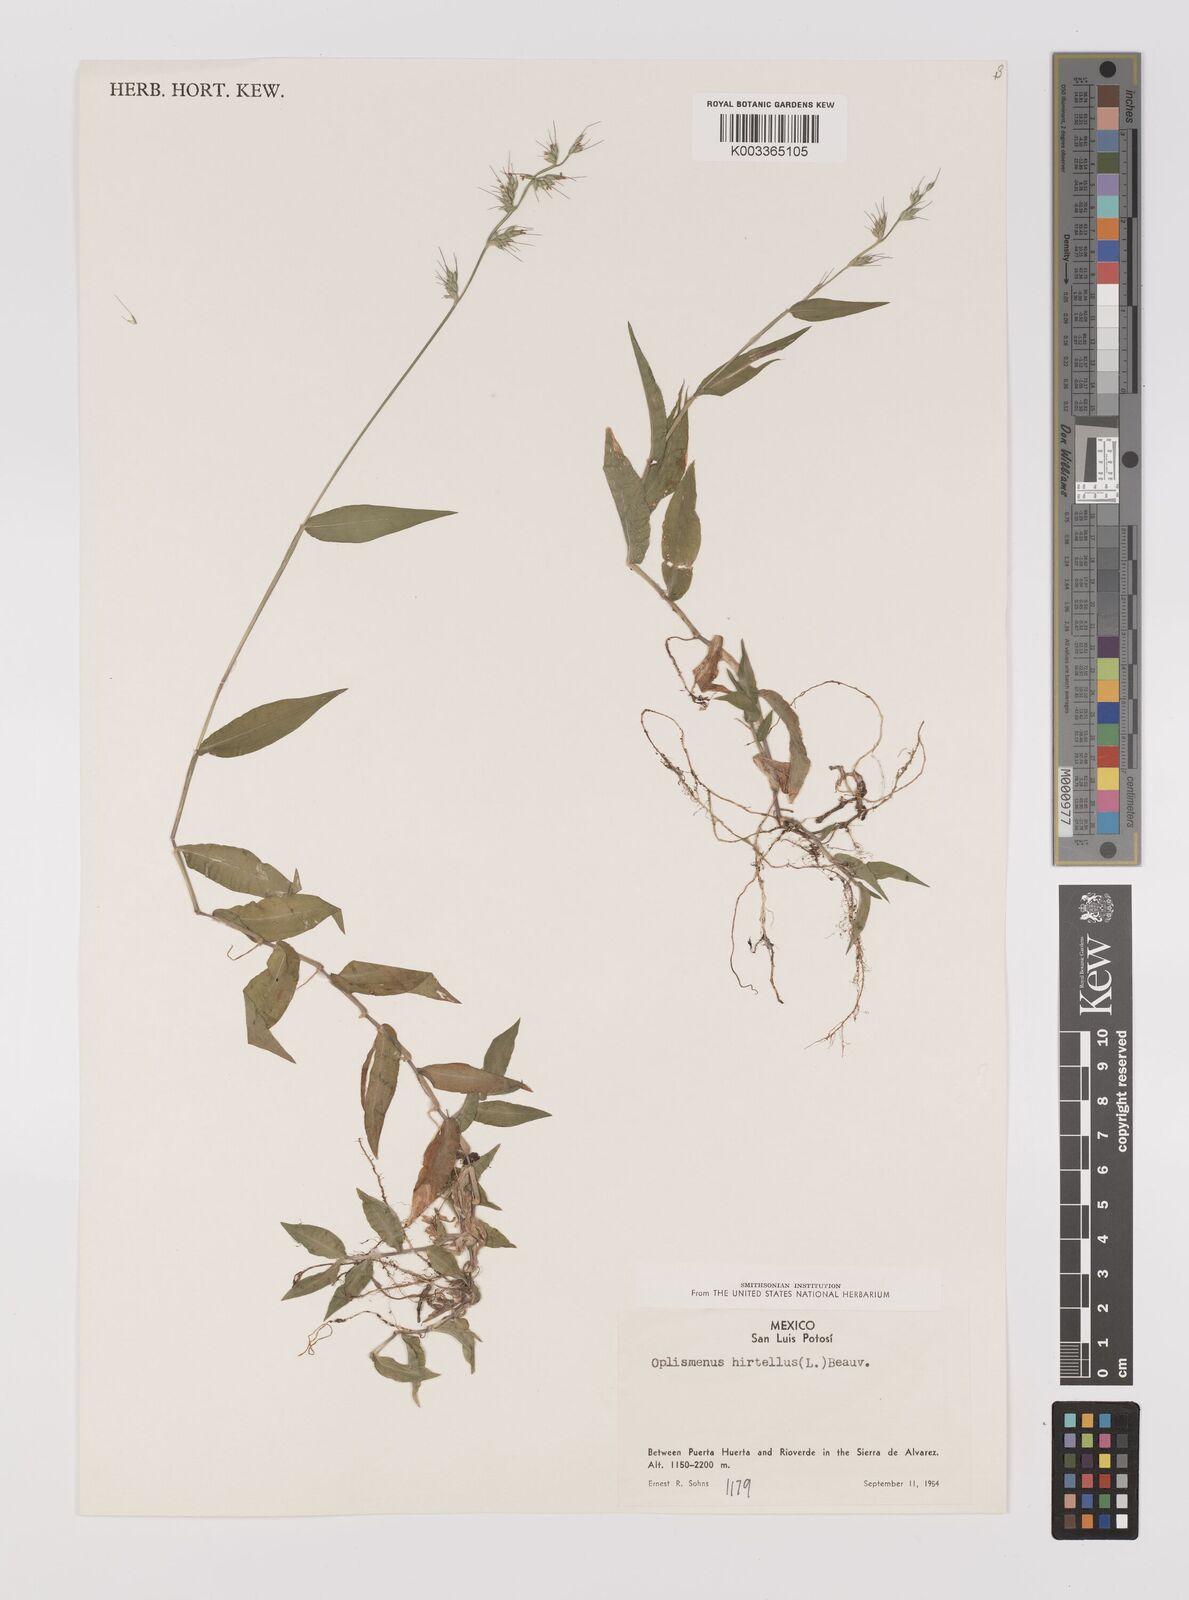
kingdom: Plantae
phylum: Tracheophyta
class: Liliopsida
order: Poales
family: Poaceae
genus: Oplismenus
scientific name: Oplismenus hirtellus
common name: Basketgrass
